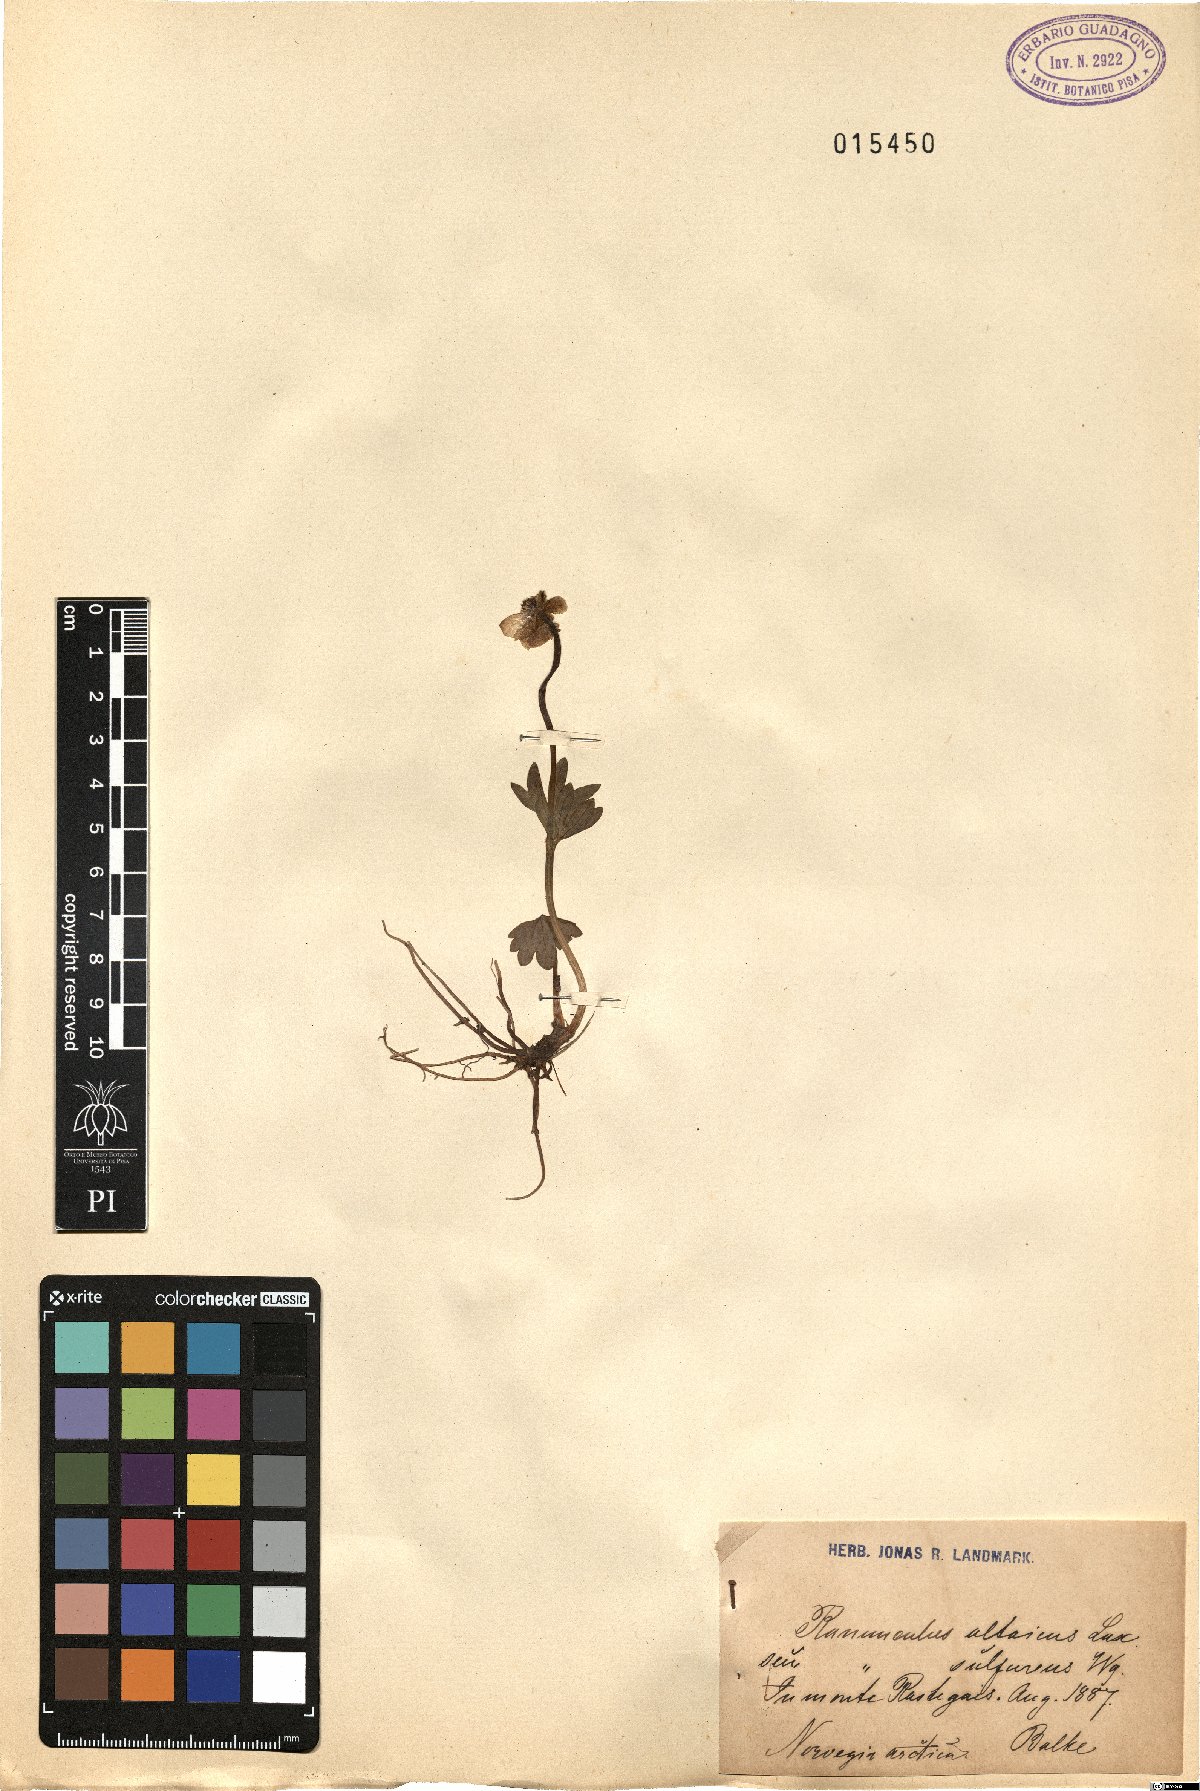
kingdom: Plantae
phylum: Tracheophyta
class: Magnoliopsida
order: Ranunculales
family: Ranunculaceae
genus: Ranunculus
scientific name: Ranunculus sulphureus
